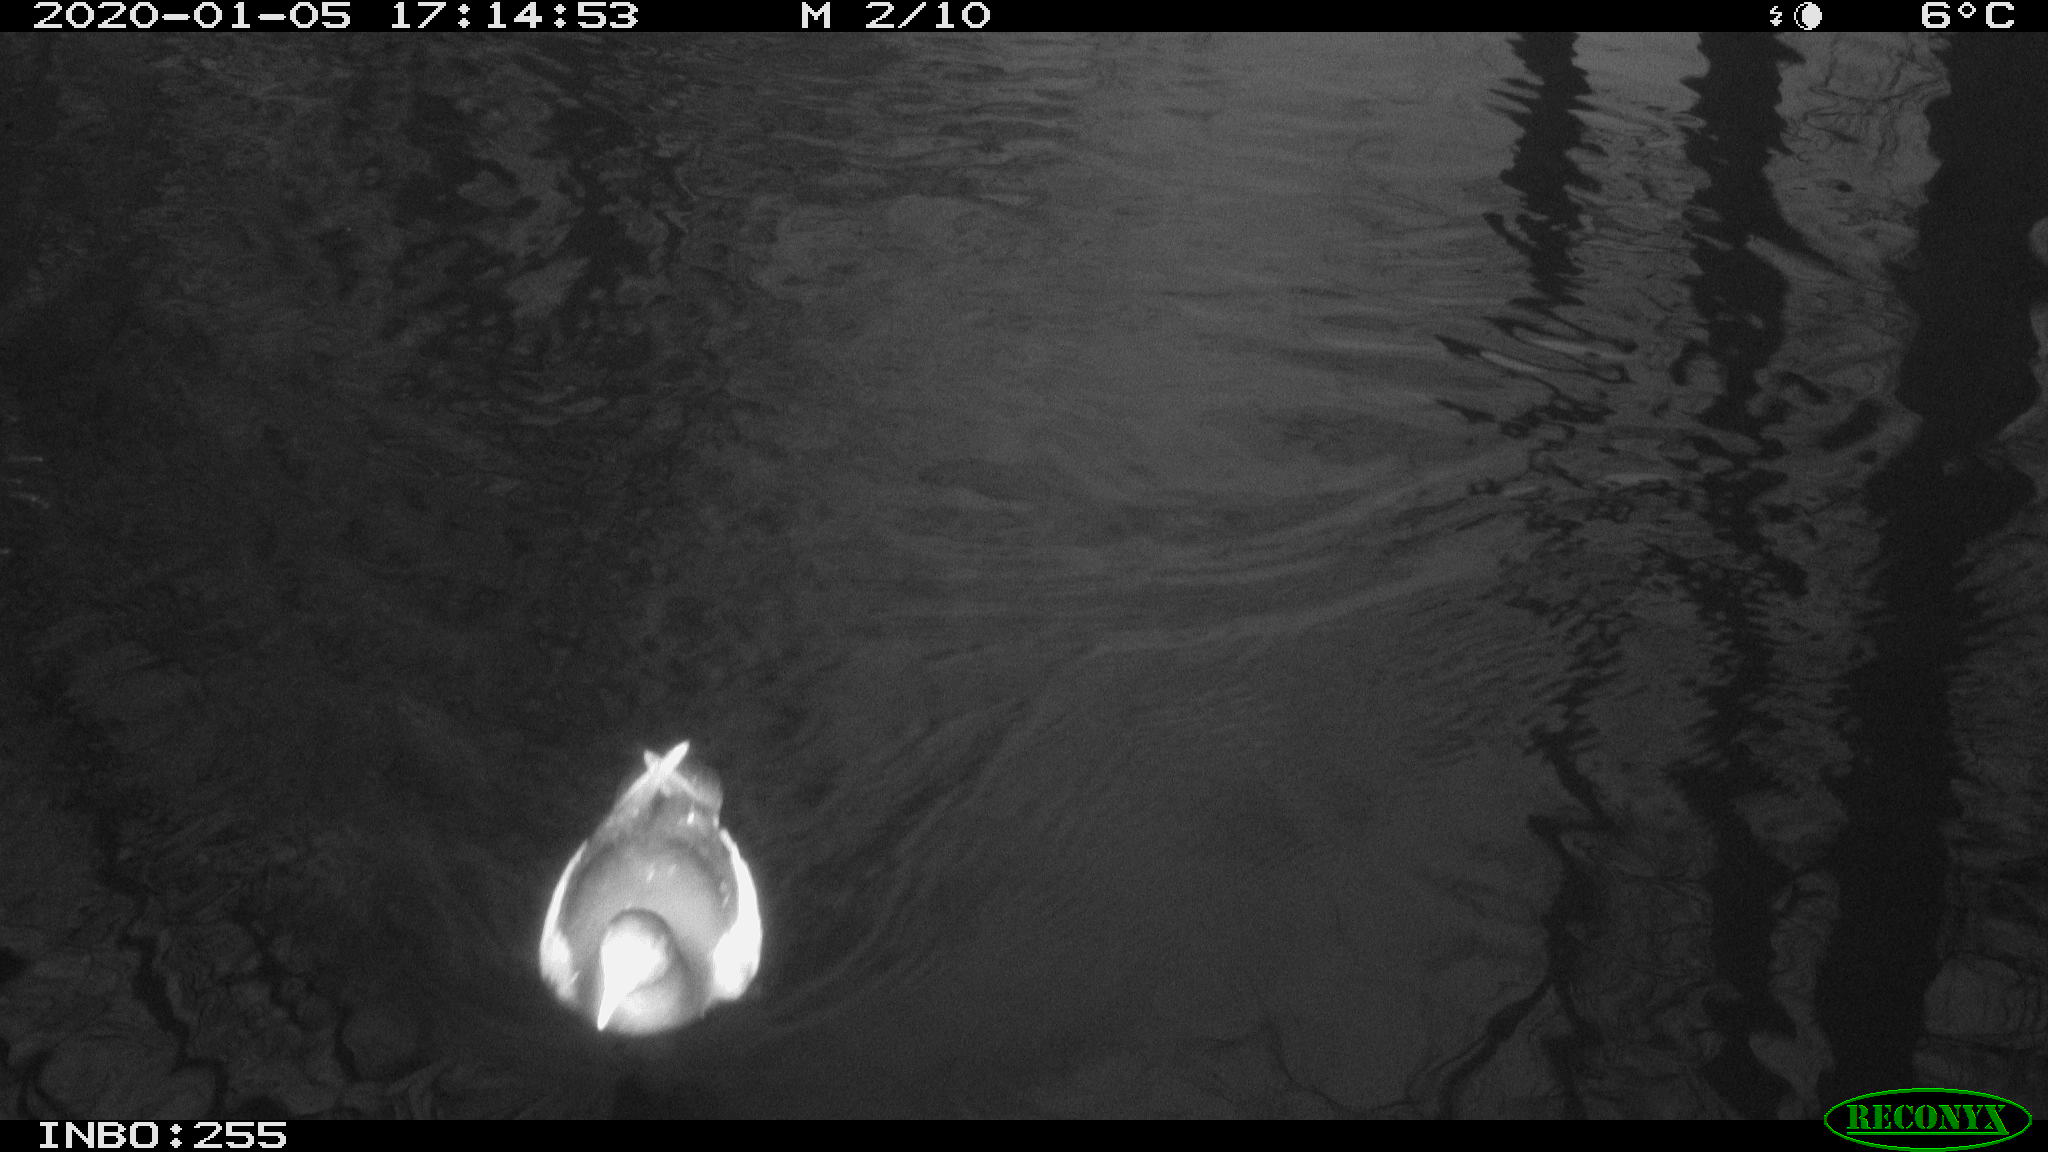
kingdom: Animalia
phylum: Chordata
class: Aves
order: Gruiformes
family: Rallidae
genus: Gallinula
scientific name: Gallinula chloropus
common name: Common moorhen
